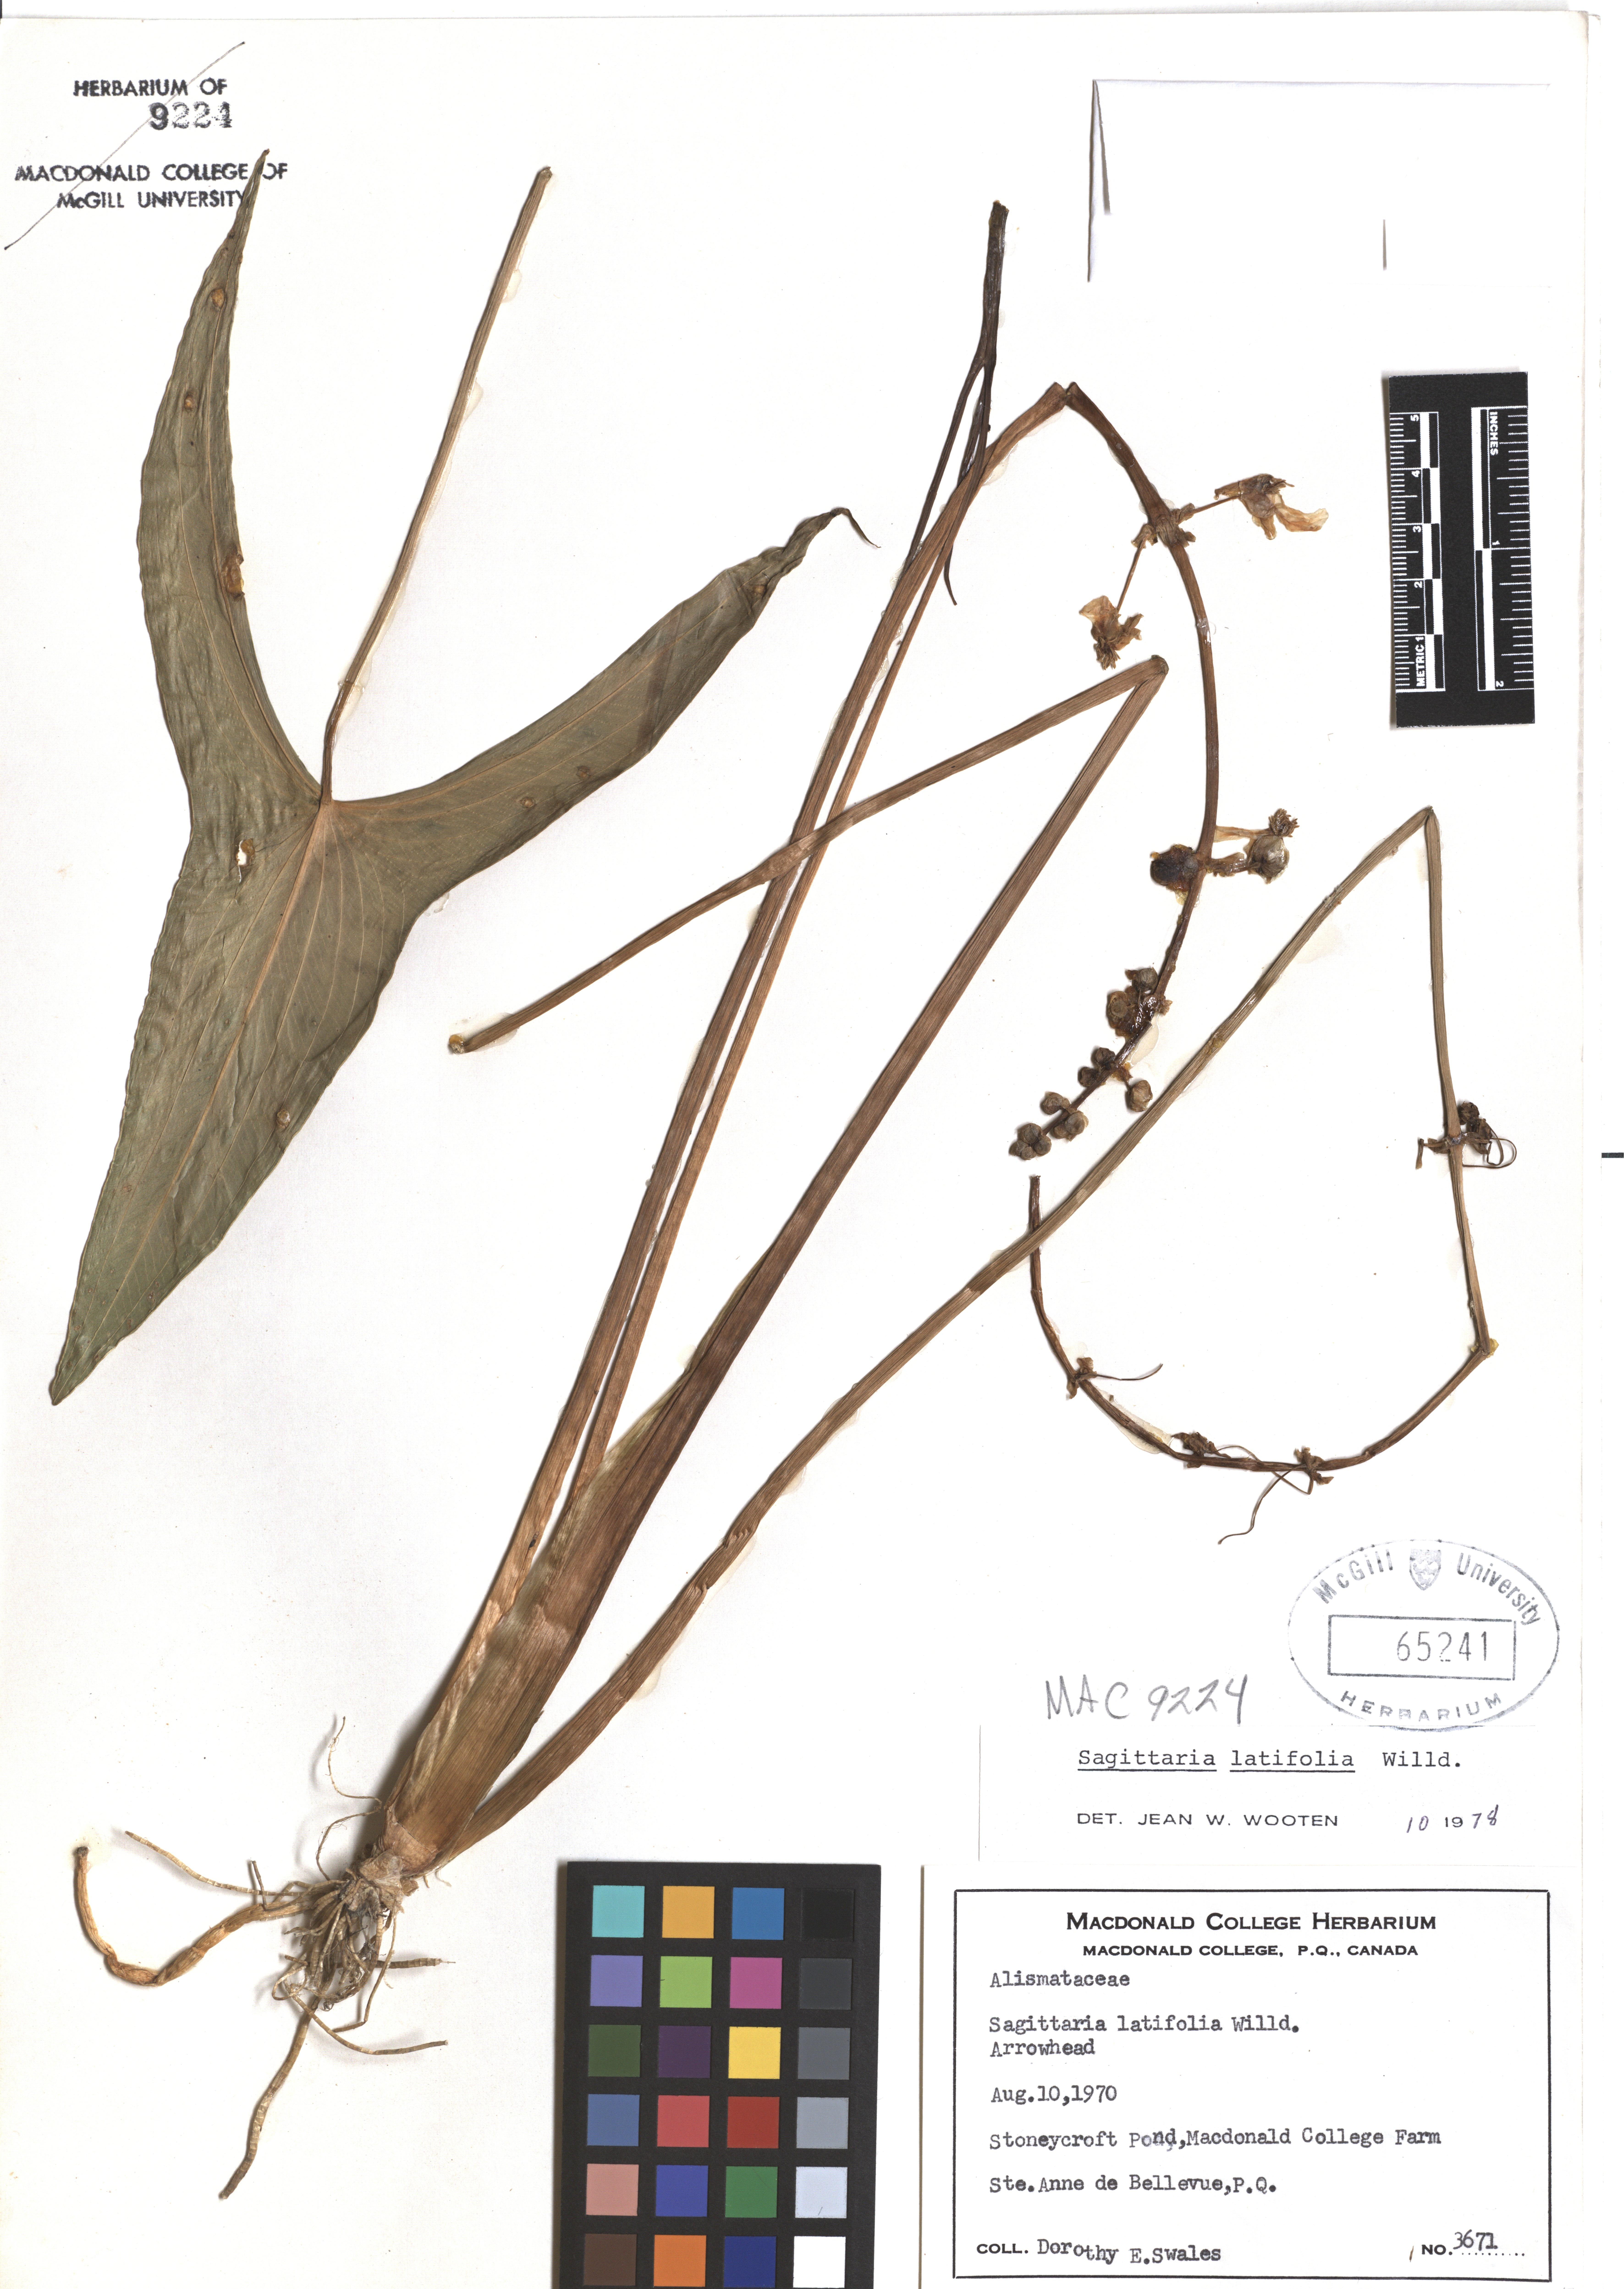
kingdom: Plantae
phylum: Tracheophyta
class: Liliopsida
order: Alismatales
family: Alismataceae
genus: Sagittaria
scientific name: Sagittaria latifolia
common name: Duck-potato
